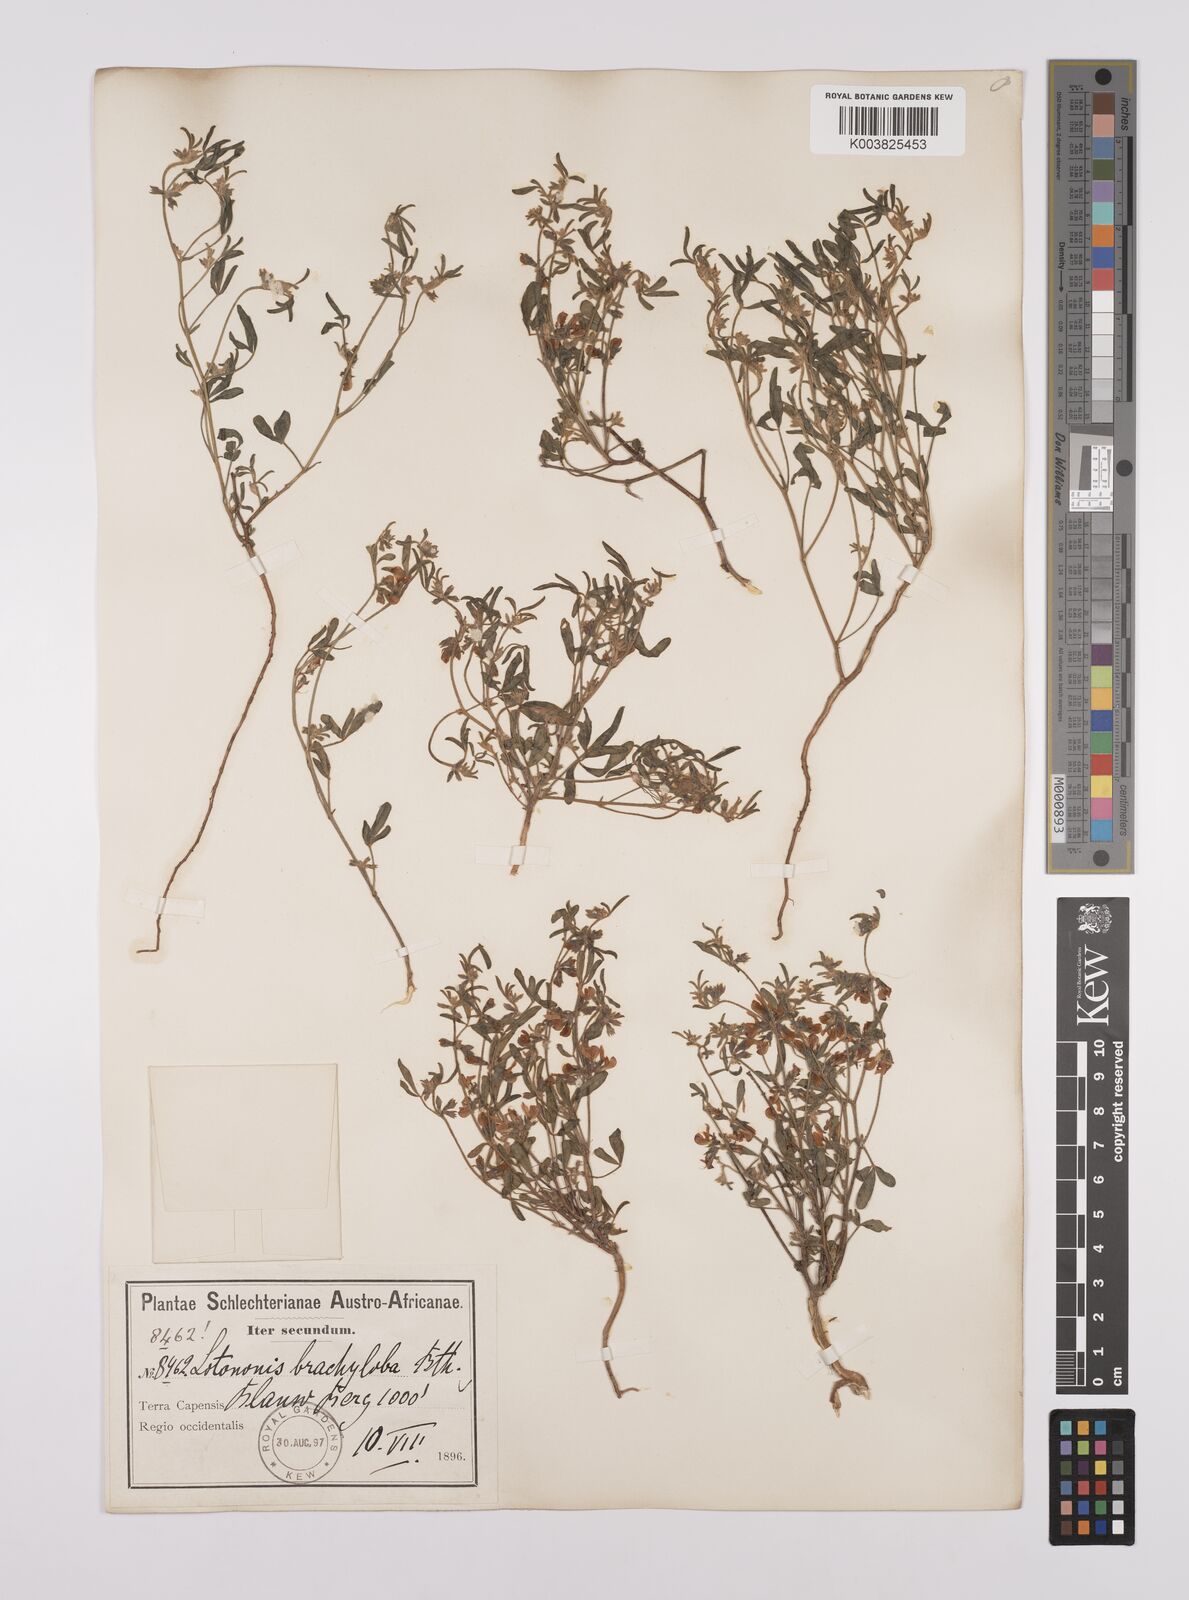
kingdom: Plantae
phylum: Tracheophyta
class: Magnoliopsida
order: Fabales
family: Fabaceae
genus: Lotononis
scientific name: Lotononis parviflora
